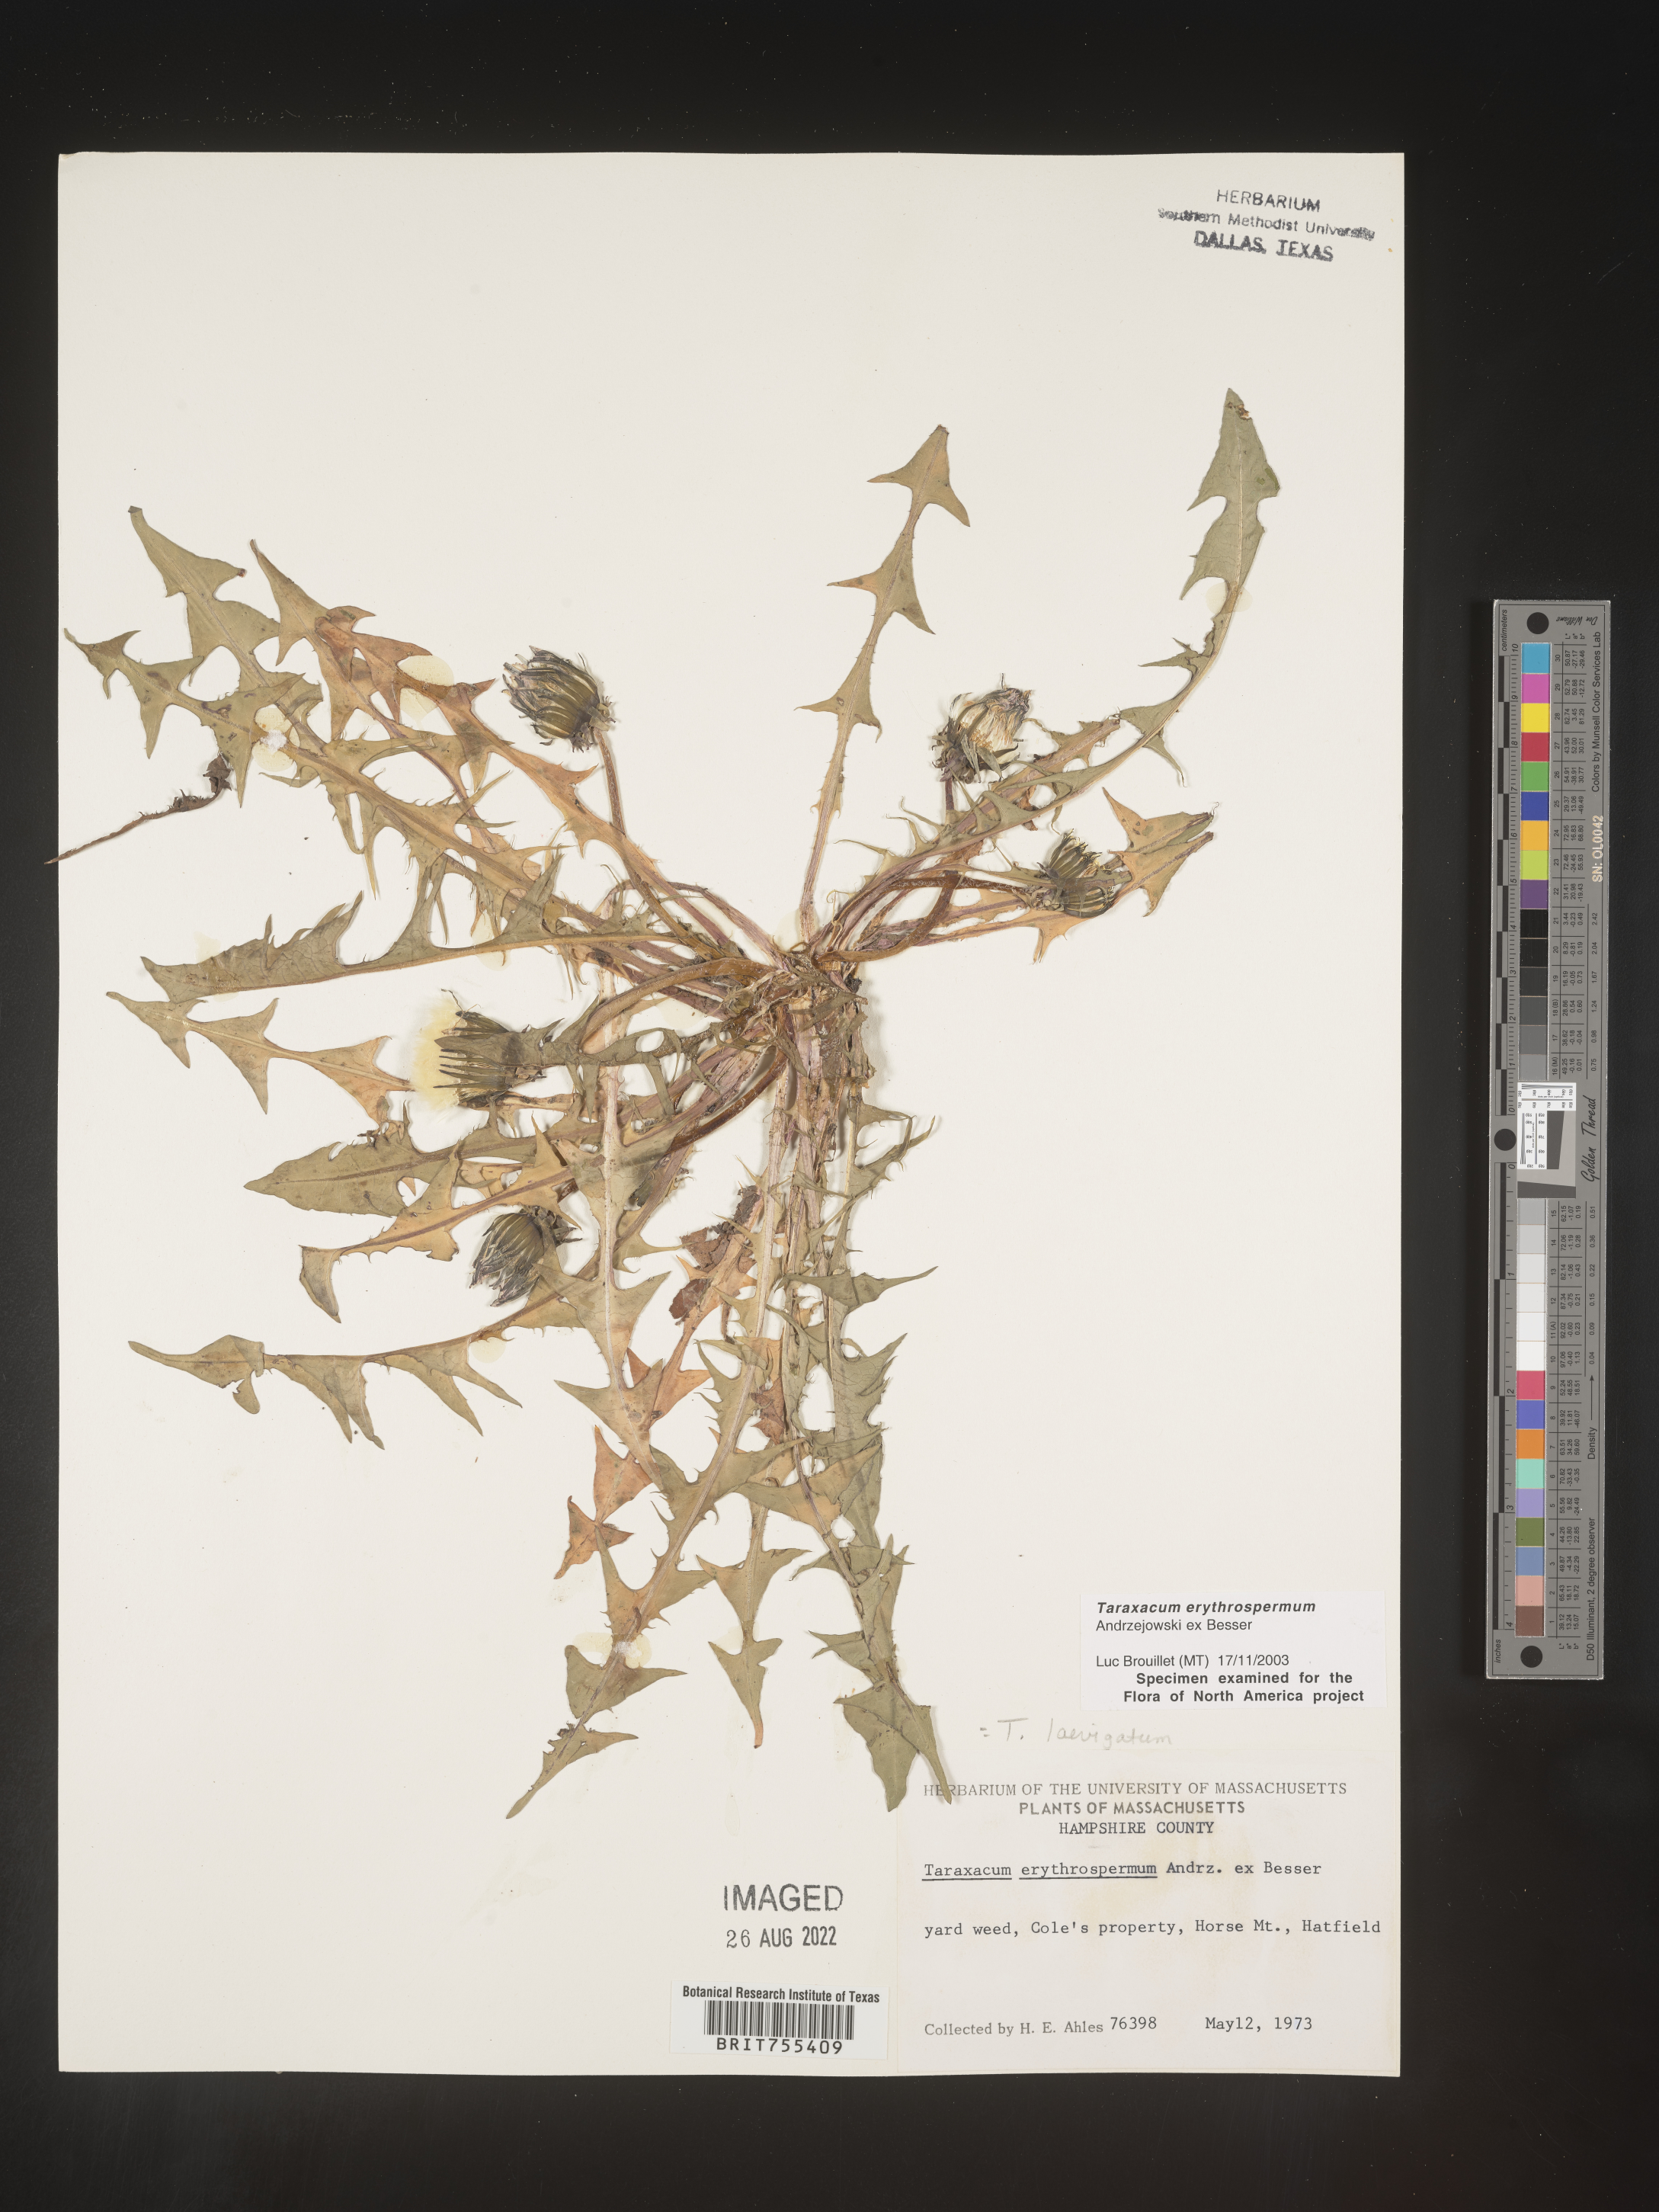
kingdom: Plantae
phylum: Tracheophyta
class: Magnoliopsida
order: Asterales
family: Asteraceae
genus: Taraxacum
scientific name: Taraxacum erythrospermum
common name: Rock dandelion
